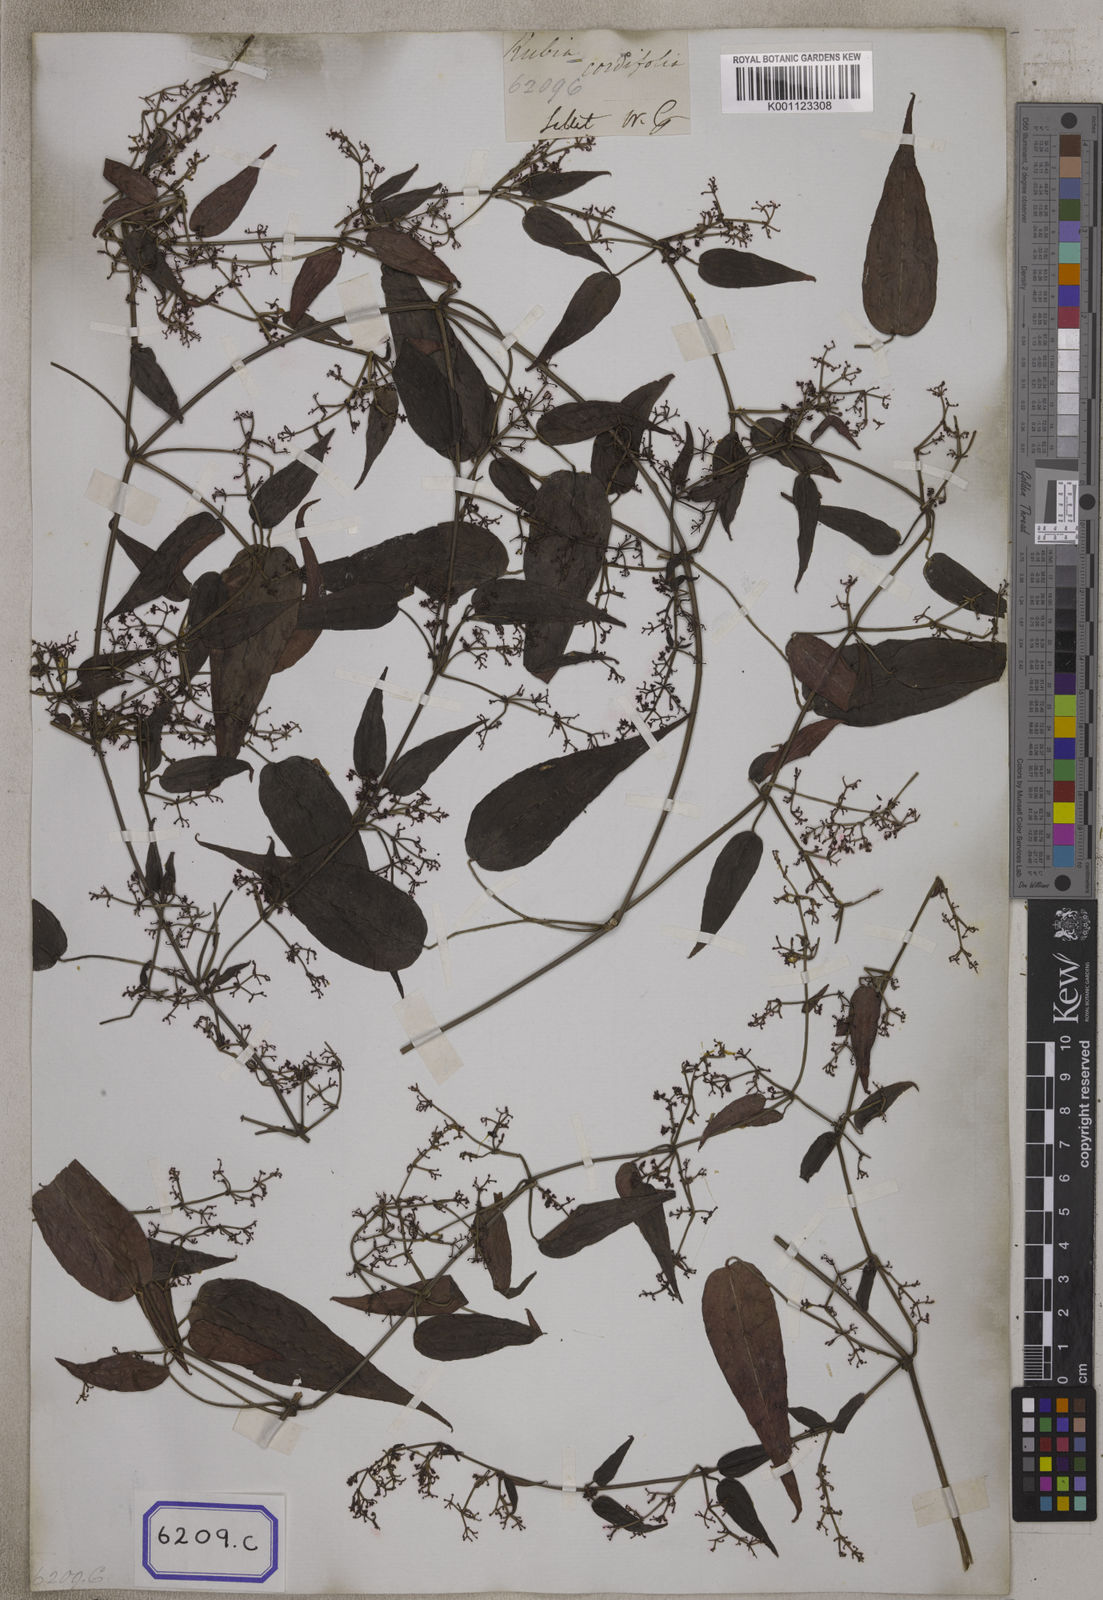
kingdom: Plantae
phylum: Tracheophyta
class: Magnoliopsida
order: Gentianales
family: Rubiaceae
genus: Rubia
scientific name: Rubia cordifolia
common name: Indian madder
